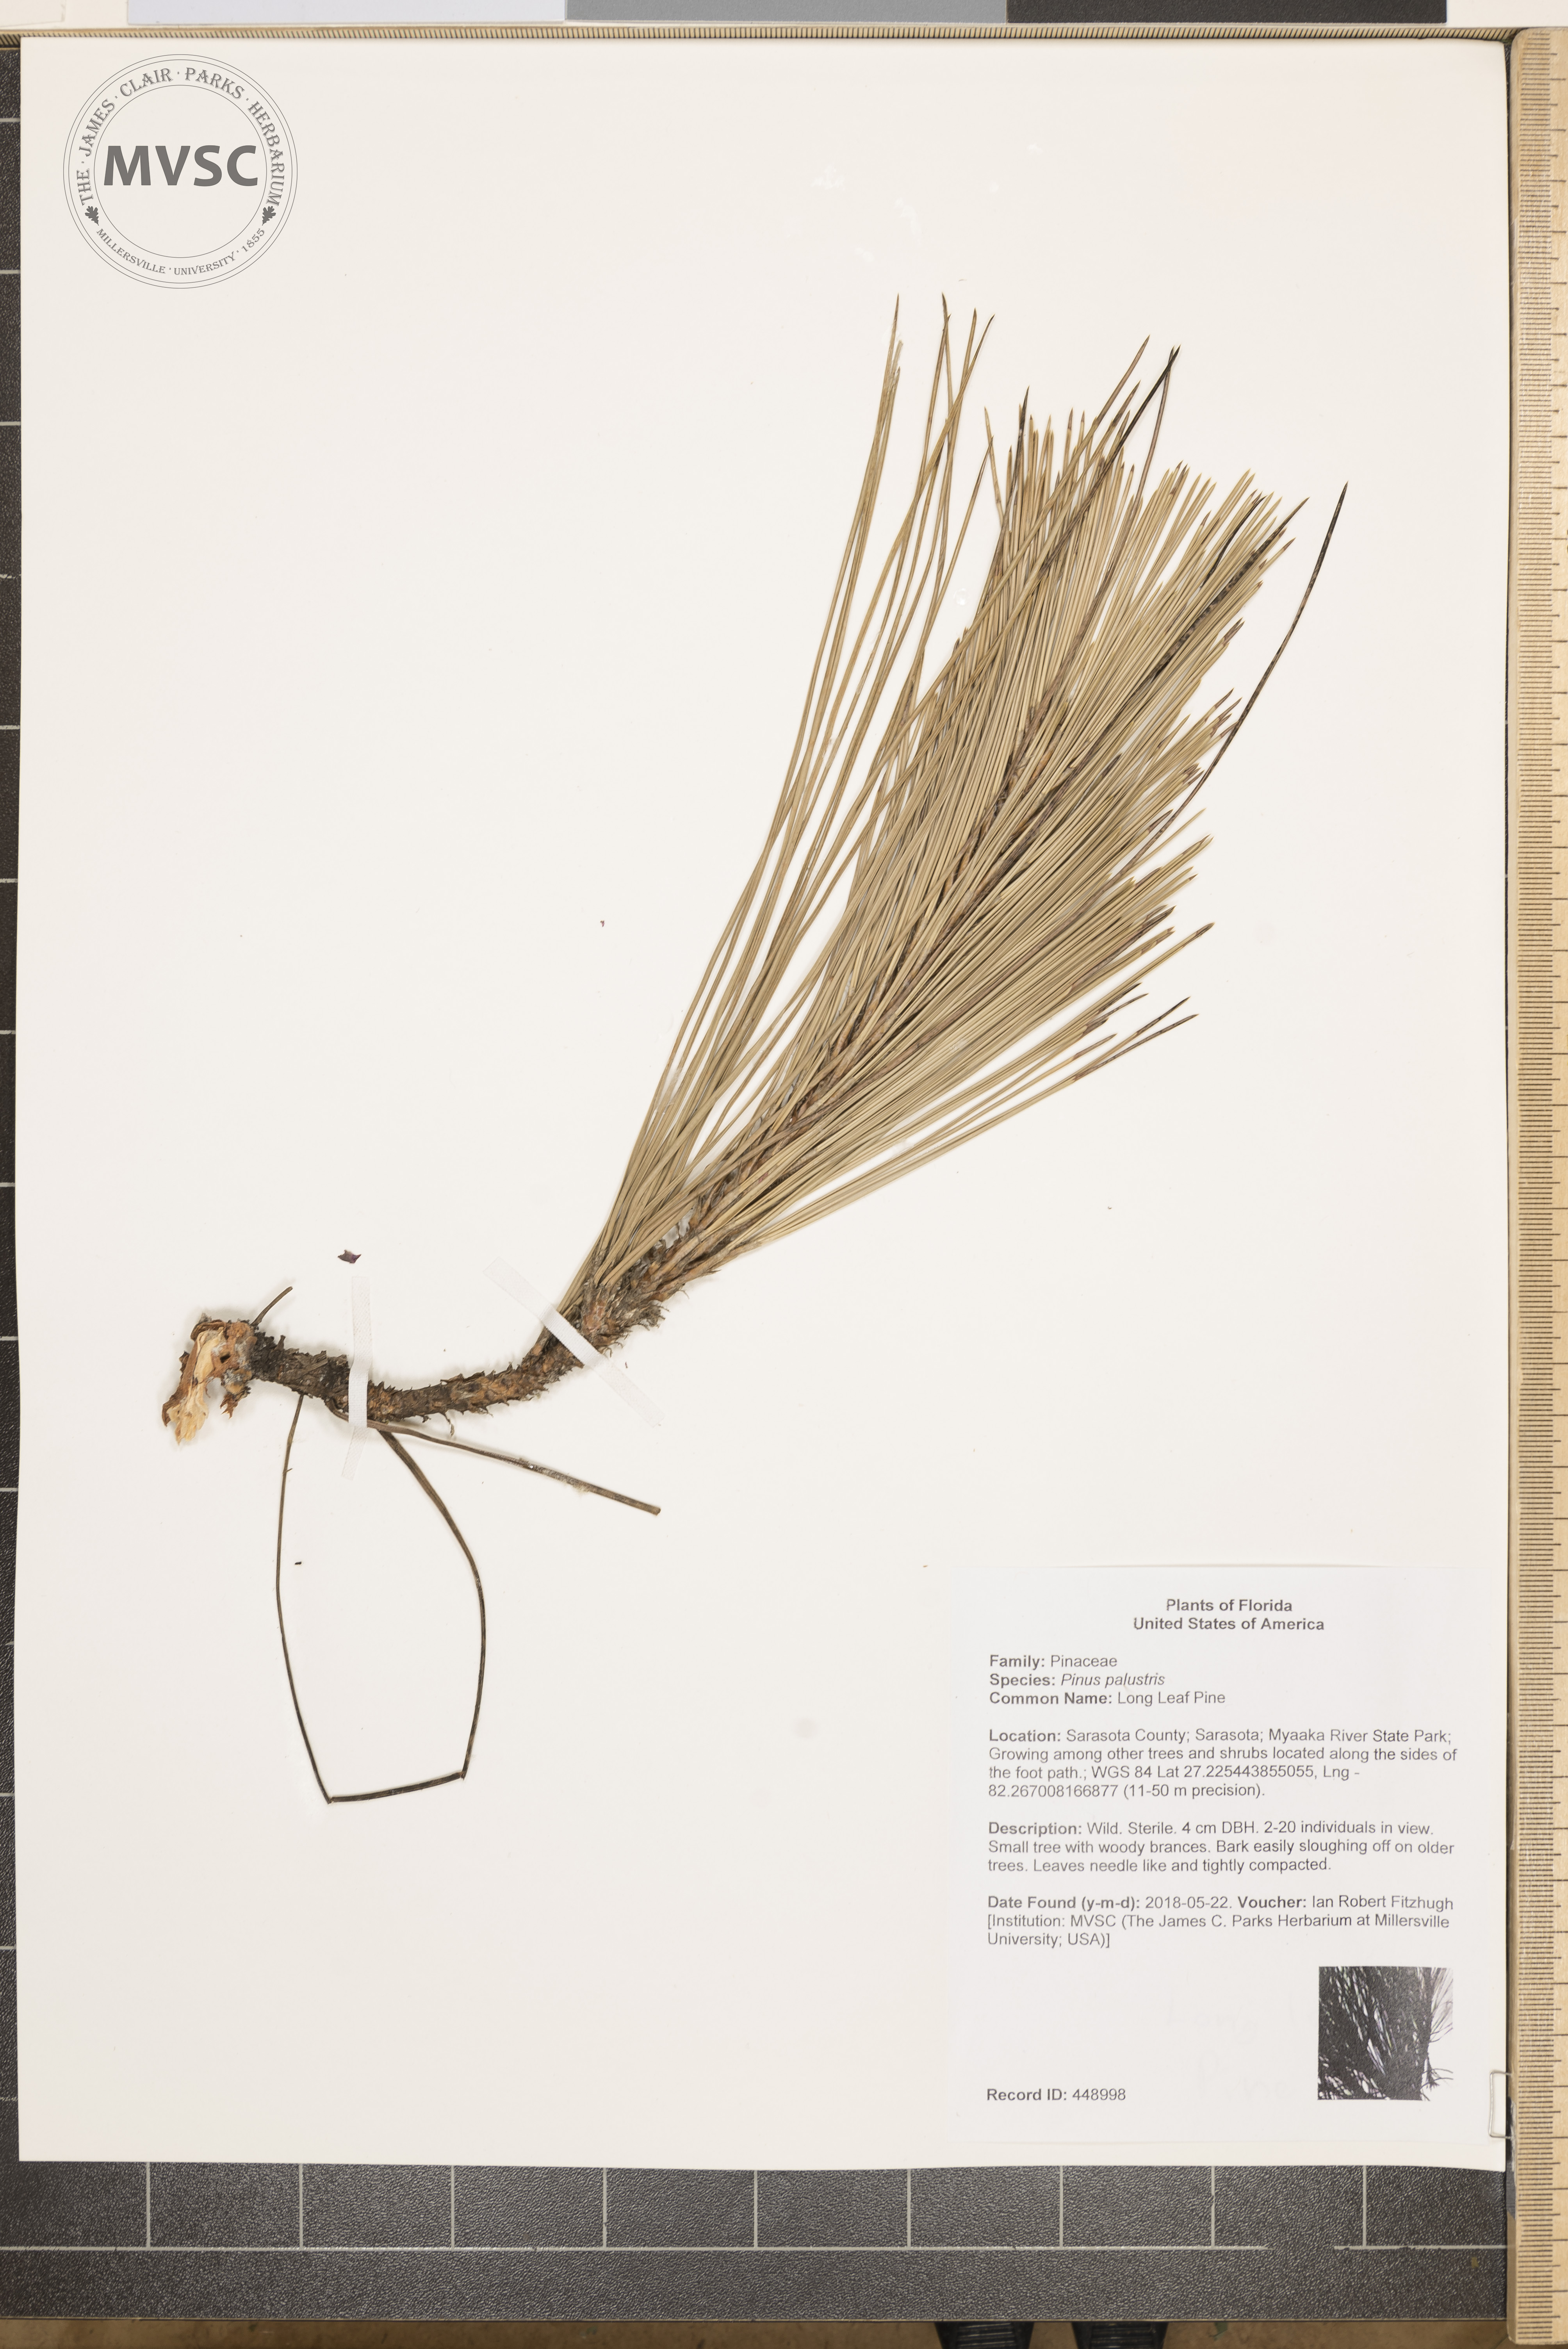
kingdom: Plantae
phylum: Tracheophyta
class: Pinopsida
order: Pinales
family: Pinaceae
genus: Pinus
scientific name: Pinus palustris
